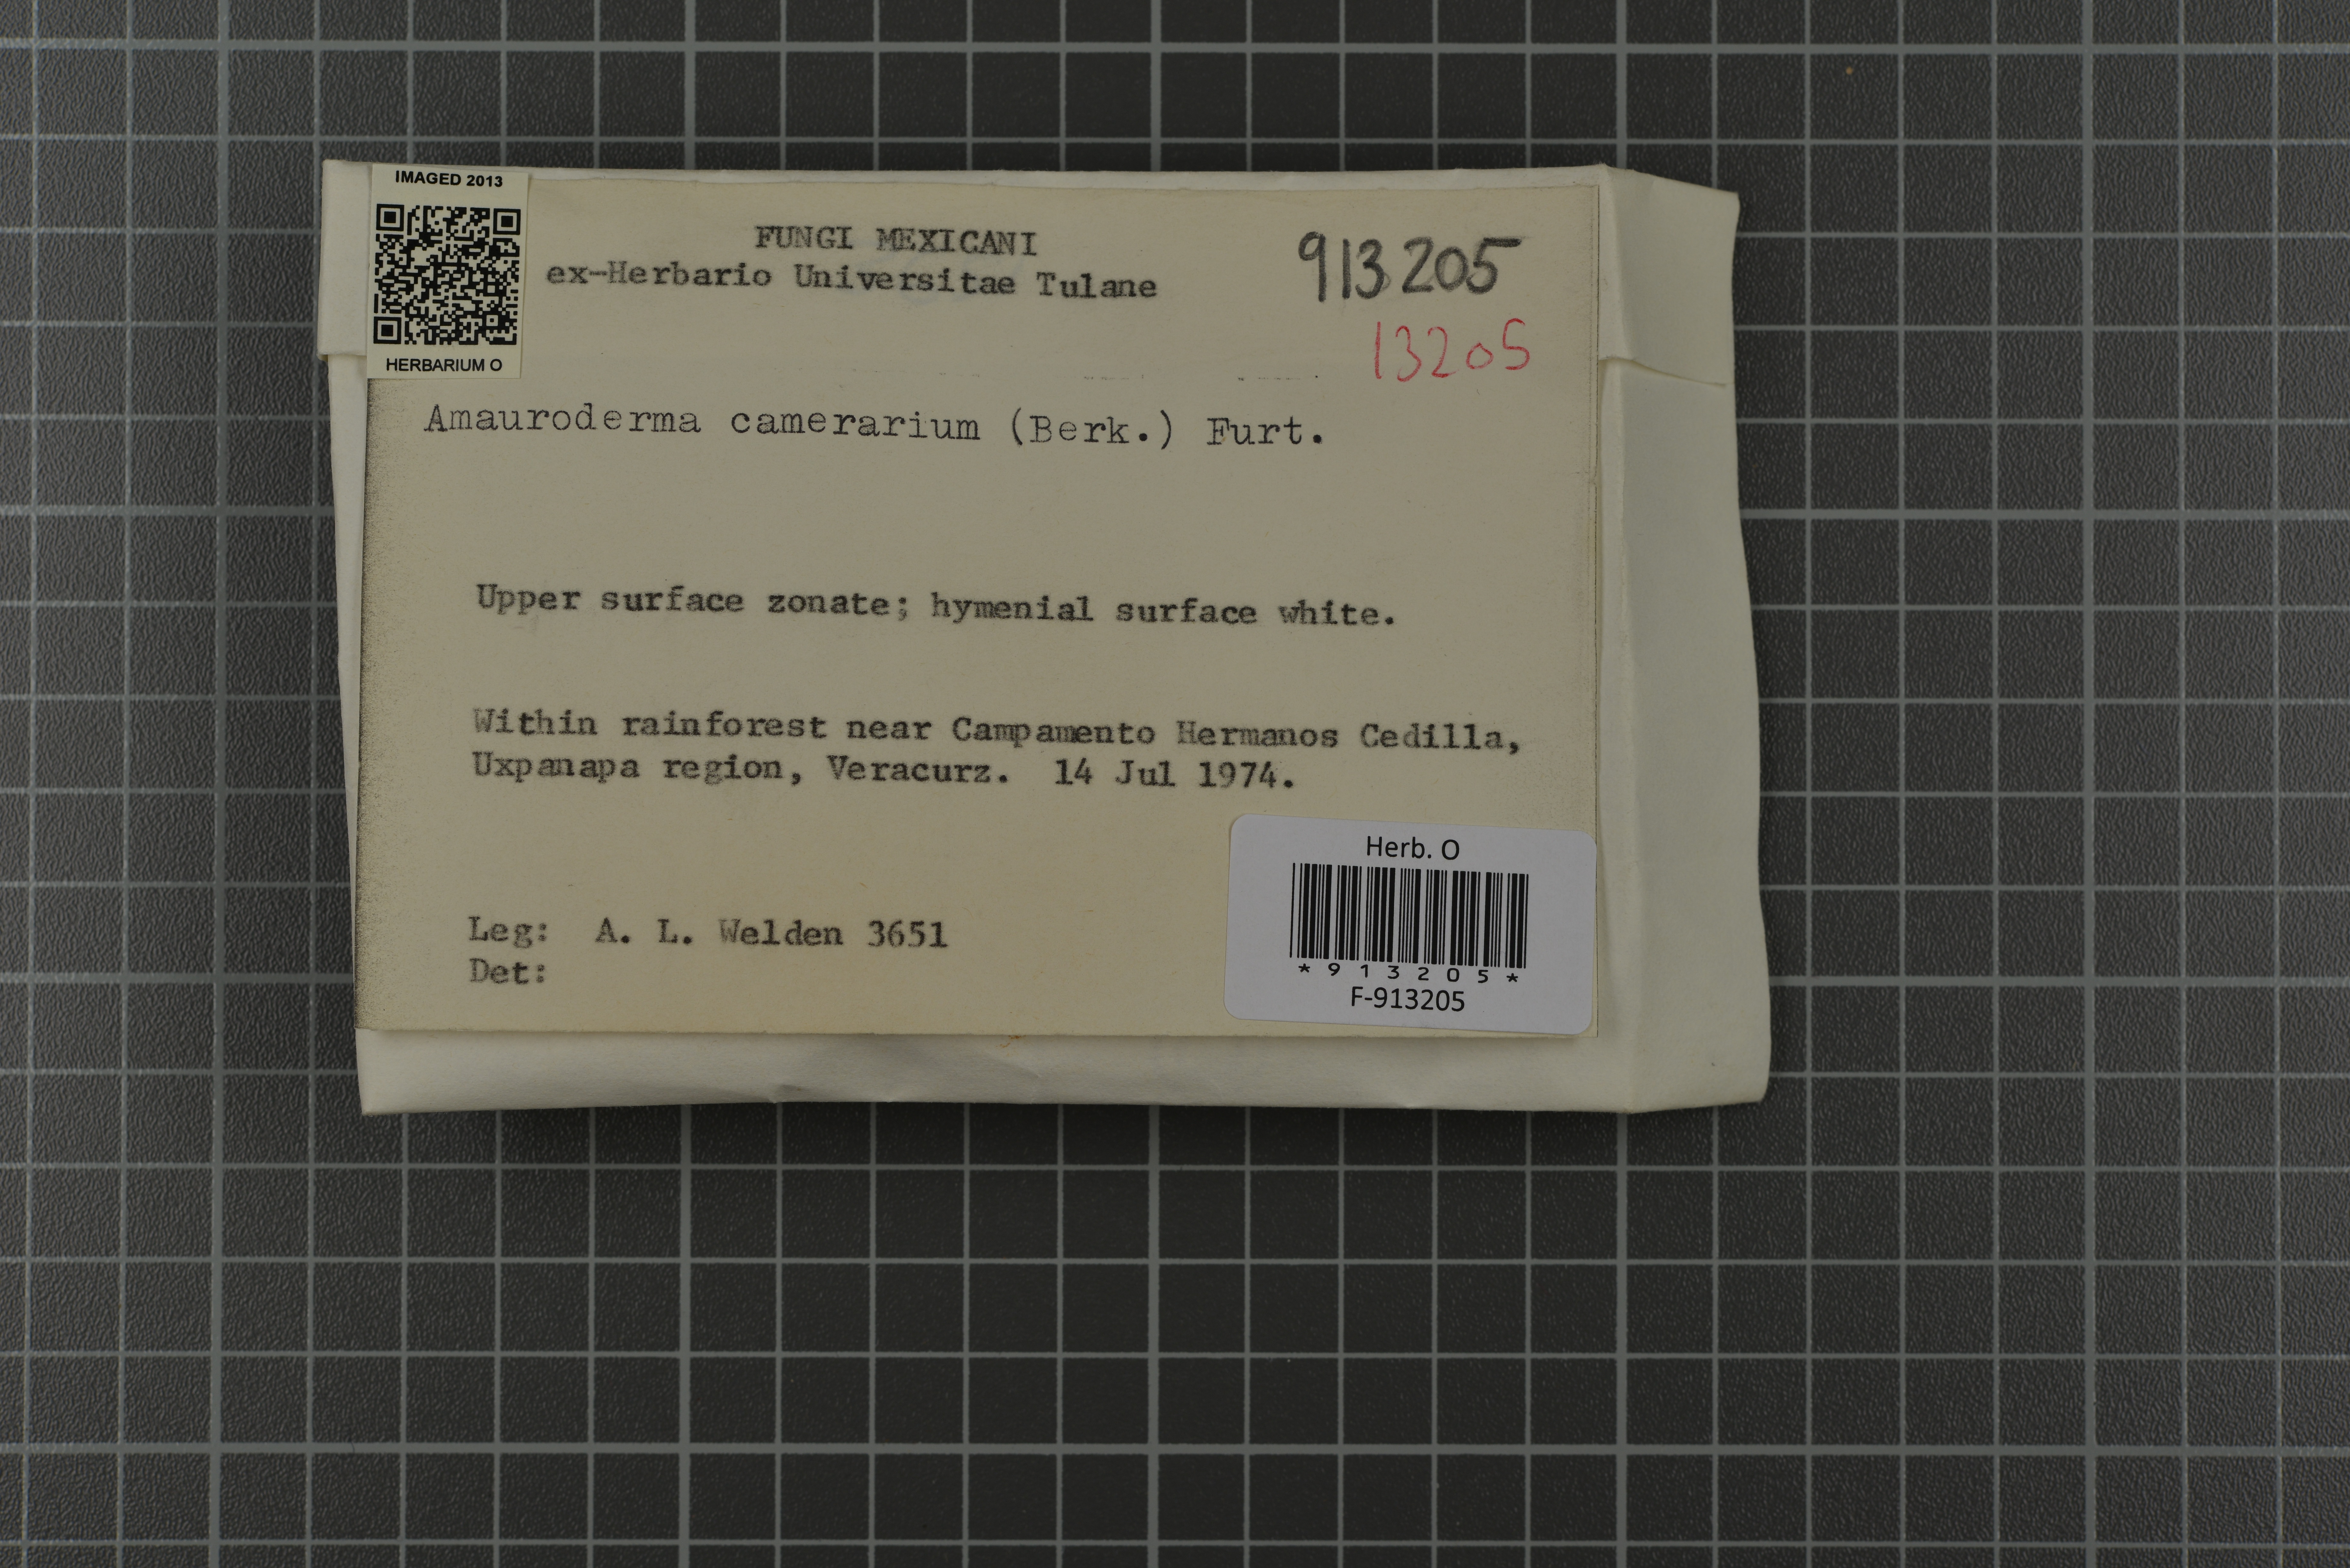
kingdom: Fungi
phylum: Basidiomycota
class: Agaricomycetes
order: Polyporales
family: Polyporaceae
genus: Amauroderma
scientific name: Amauroderma camerarium
